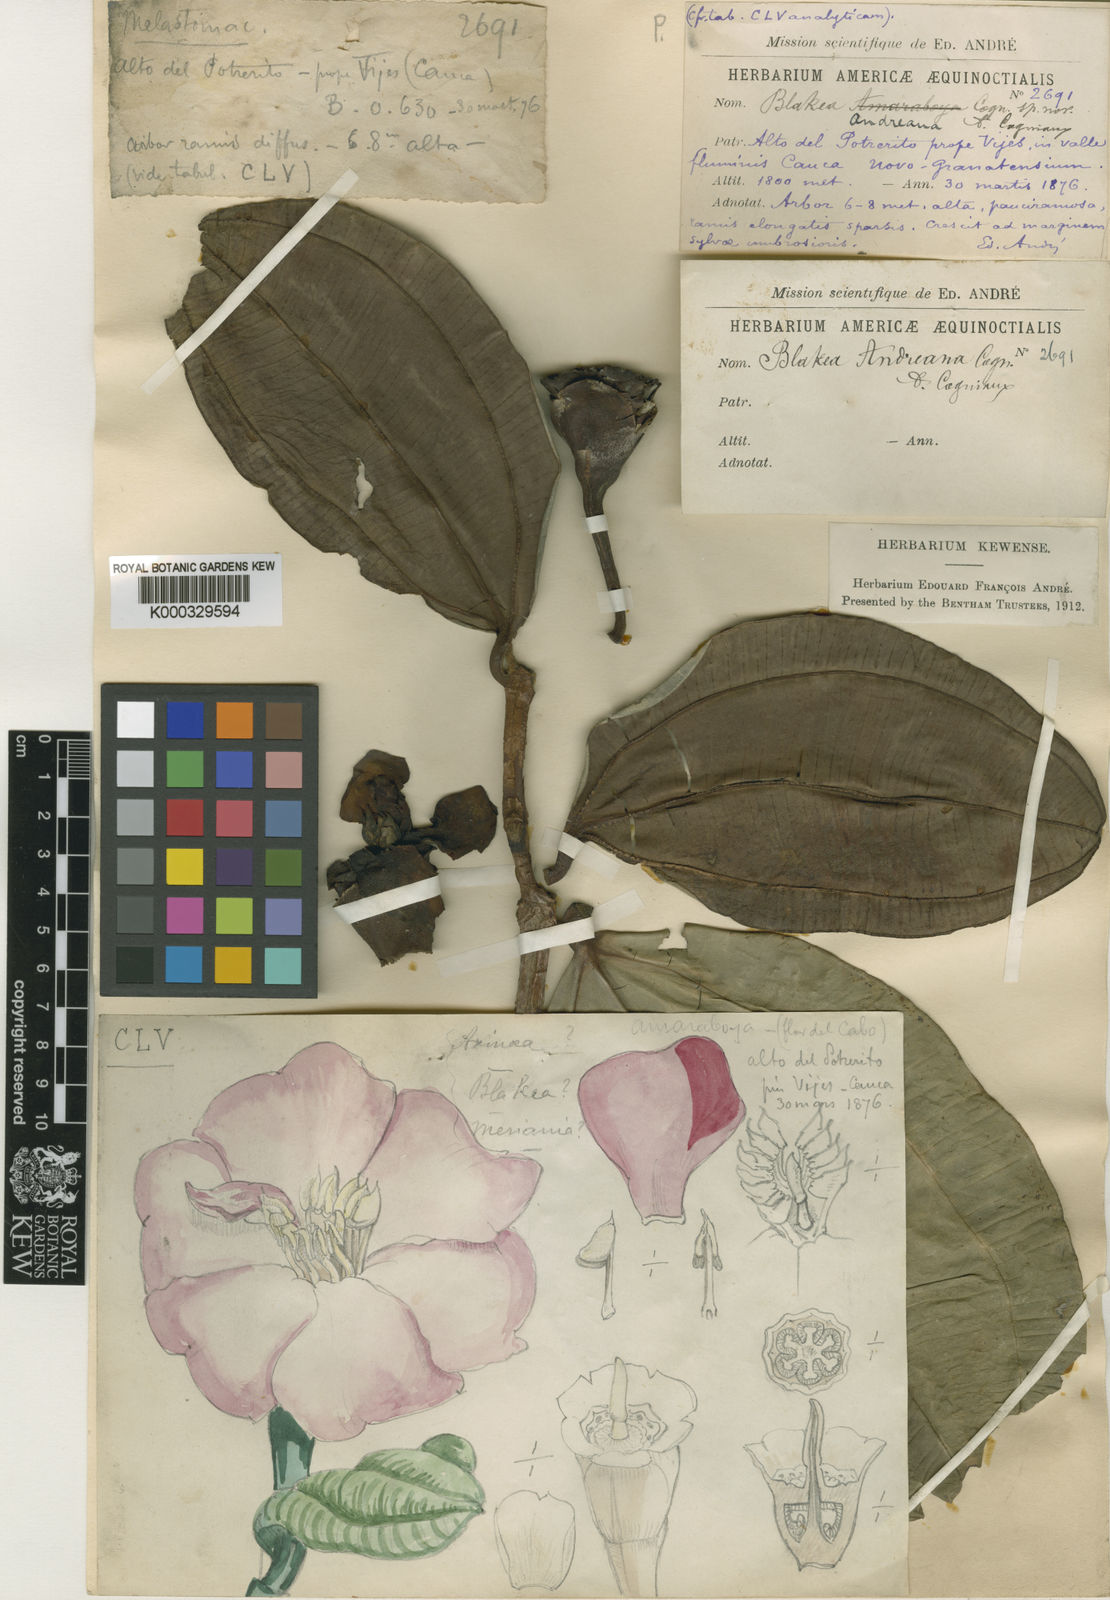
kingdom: Plantae
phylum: Tracheophyta
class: Magnoliopsida
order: Myrtales
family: Melastomataceae
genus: Blakea
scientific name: Blakea andreana
